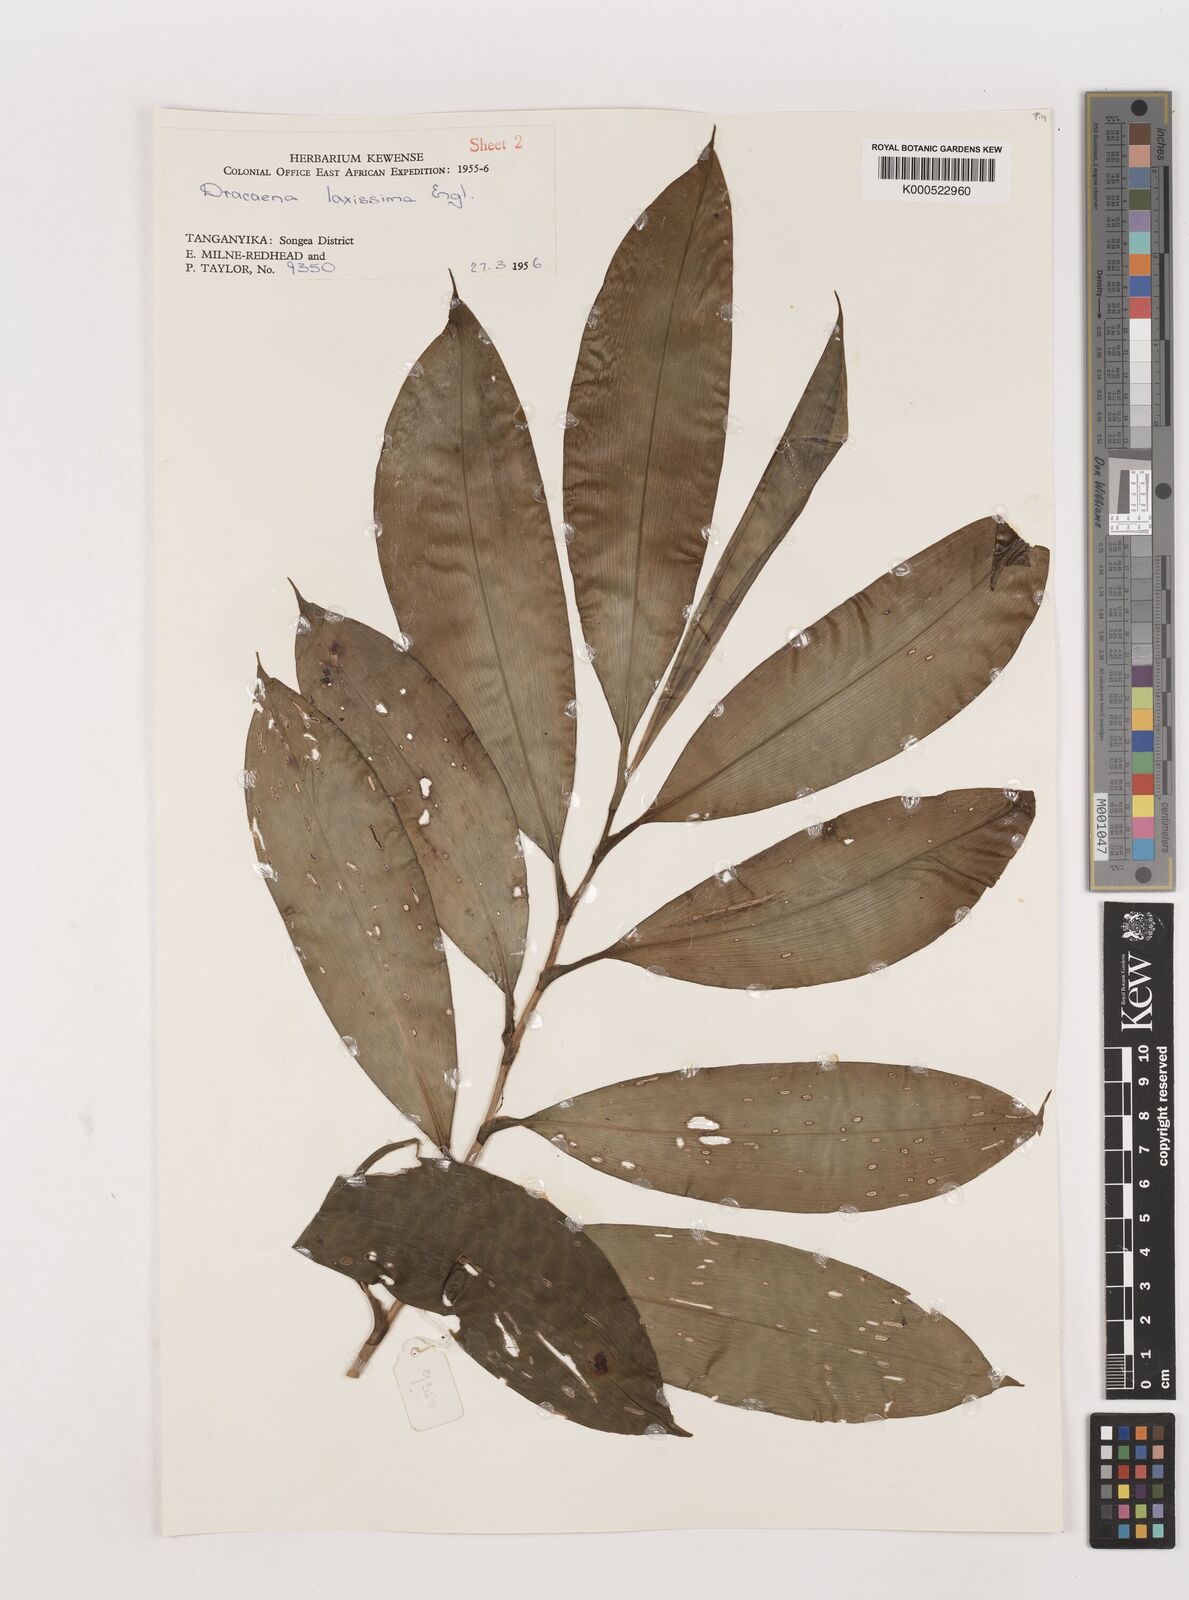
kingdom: Plantae
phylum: Tracheophyta
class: Liliopsida
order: Asparagales
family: Asparagaceae
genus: Dracaena
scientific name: Dracaena laxissima
